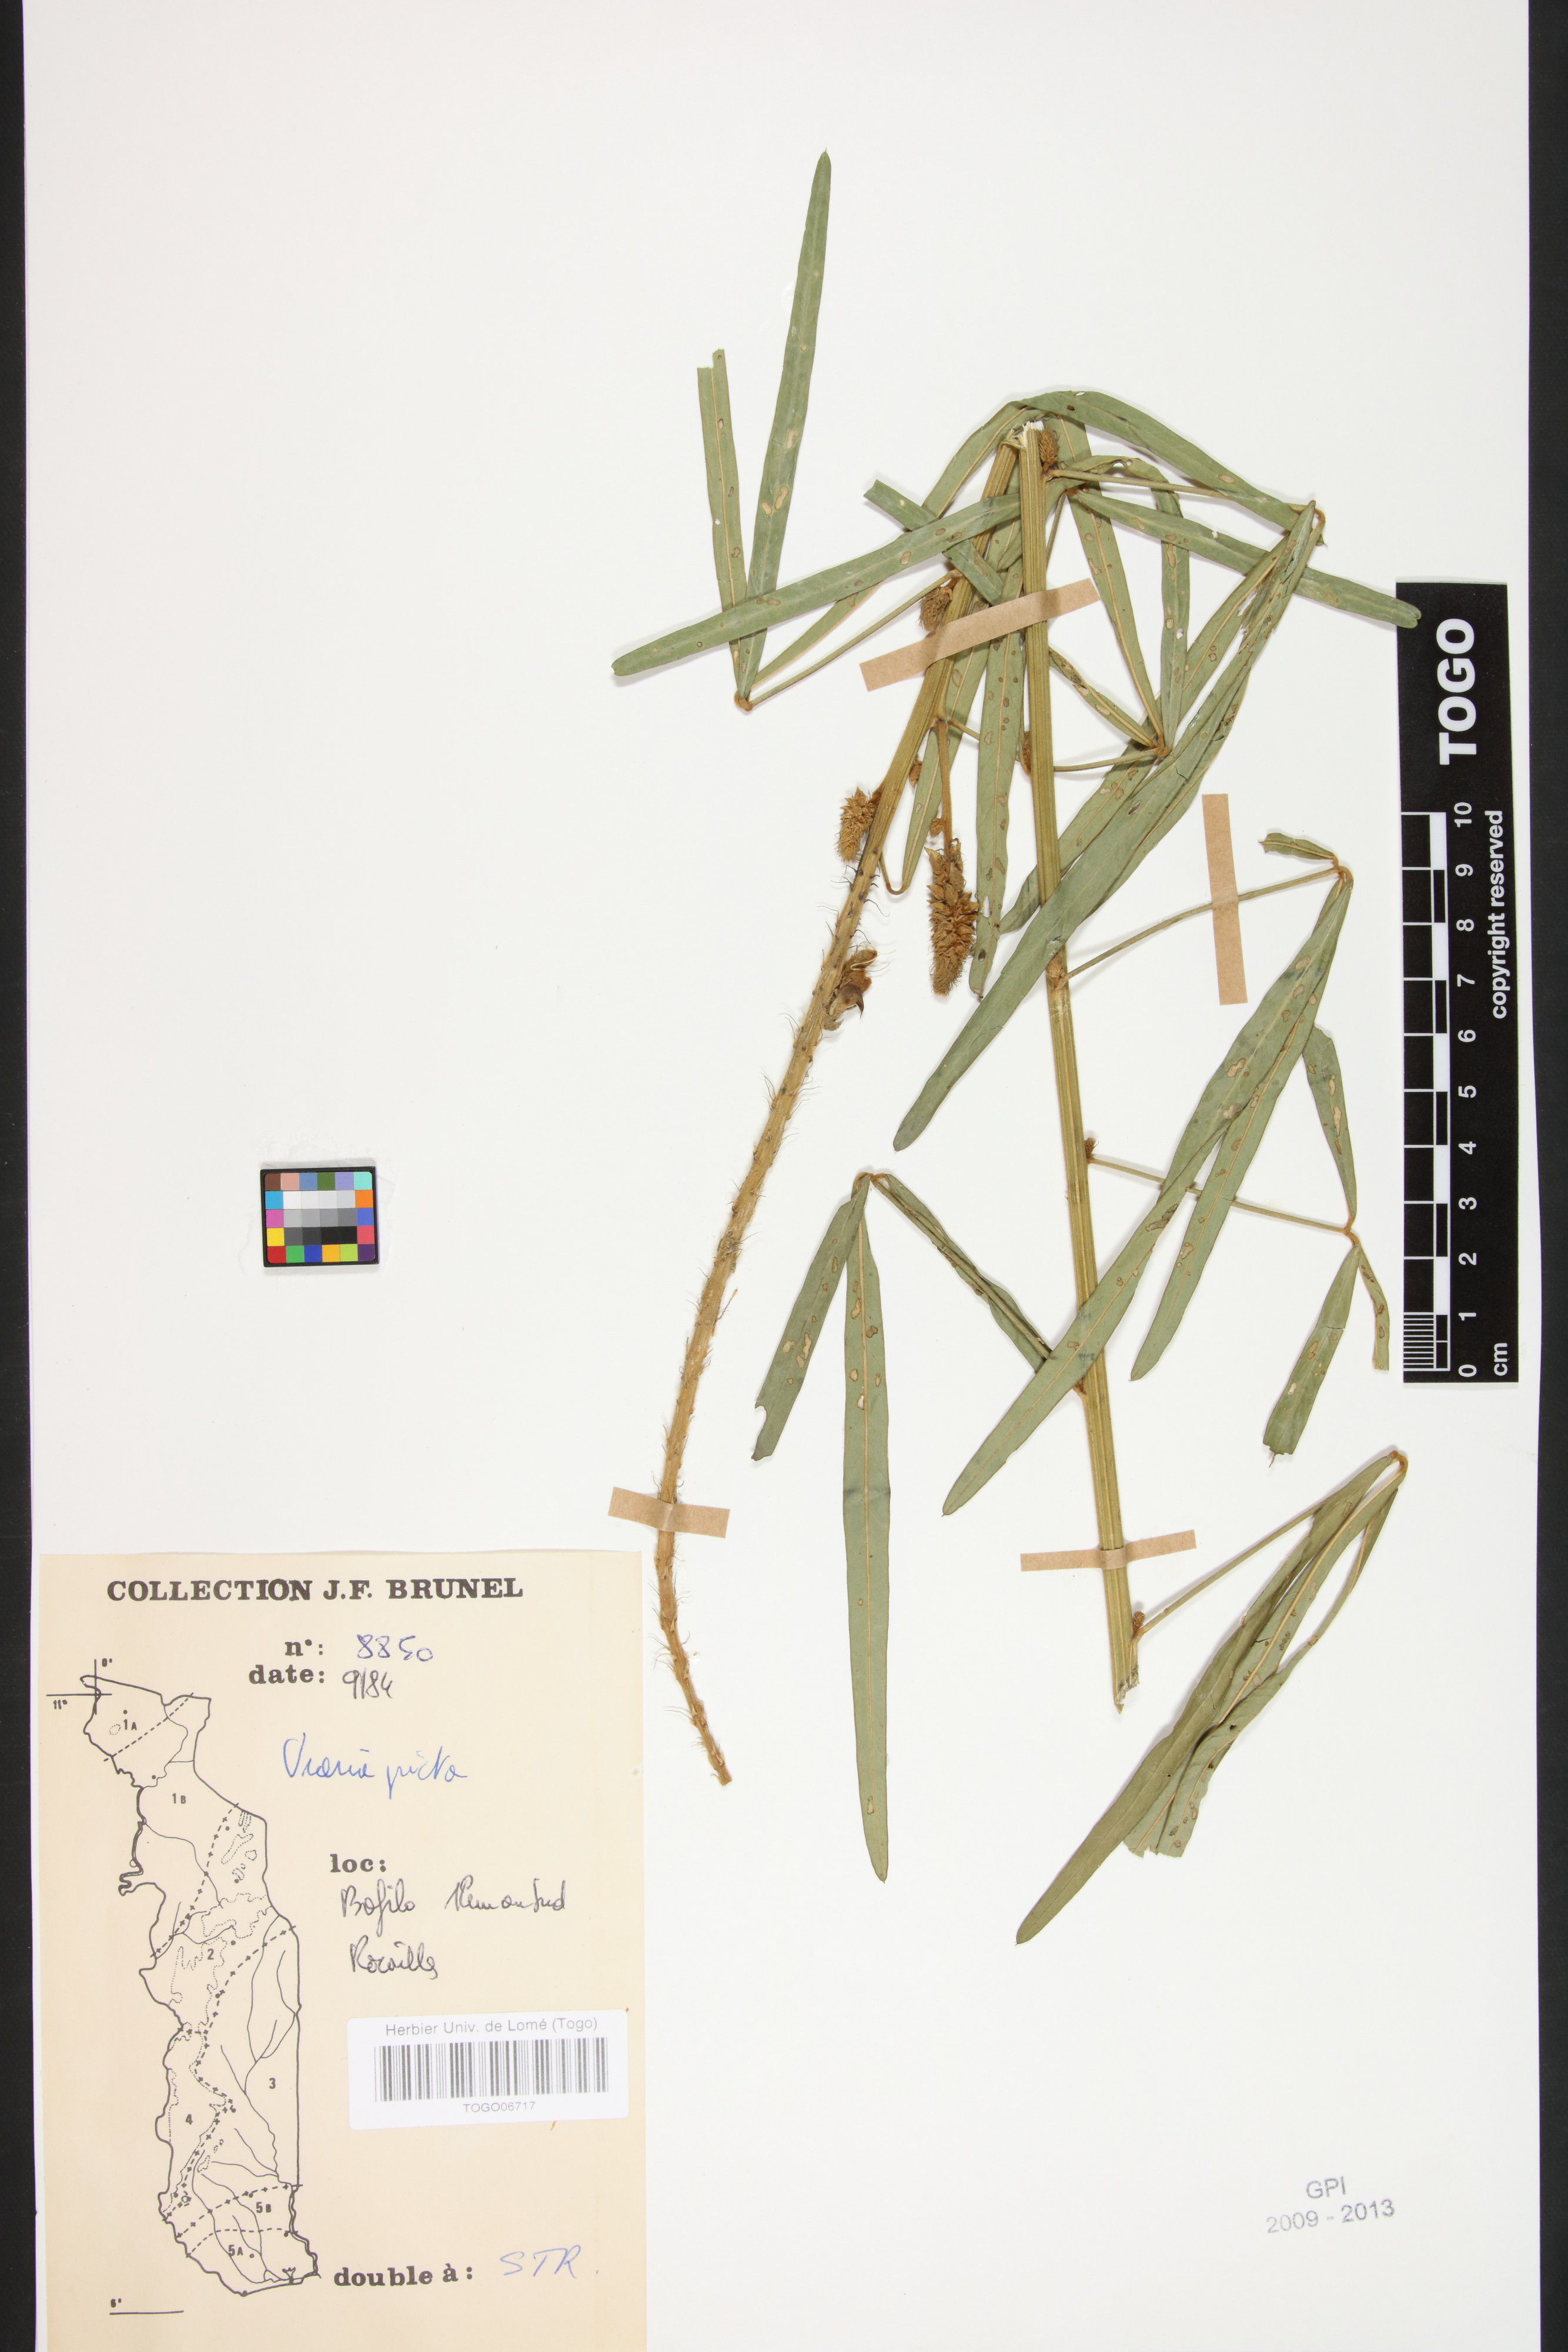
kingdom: Plantae
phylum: Tracheophyta
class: Magnoliopsida
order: Fabales
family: Fabaceae
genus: Uraria
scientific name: Uraria picta
